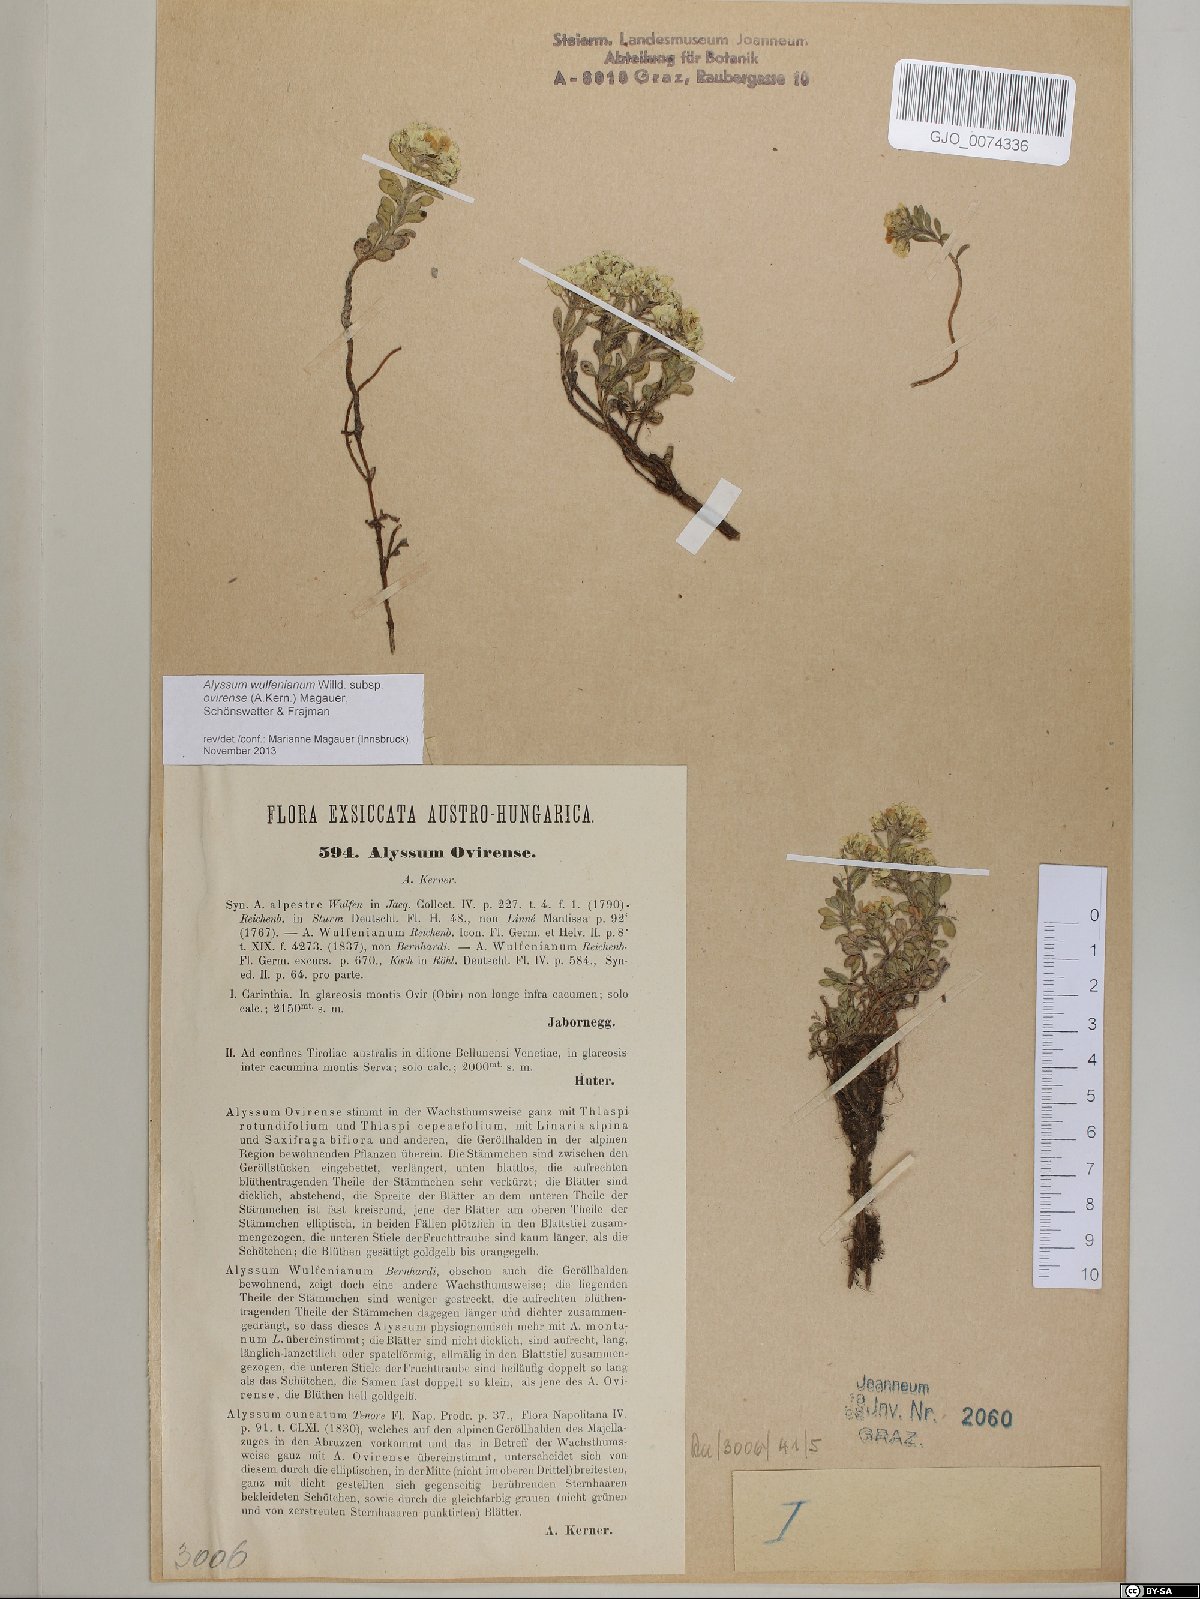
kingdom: Plantae
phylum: Tracheophyta
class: Magnoliopsida
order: Brassicales
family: Brassicaceae
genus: Alyssum
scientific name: Alyssum wulfenianum
